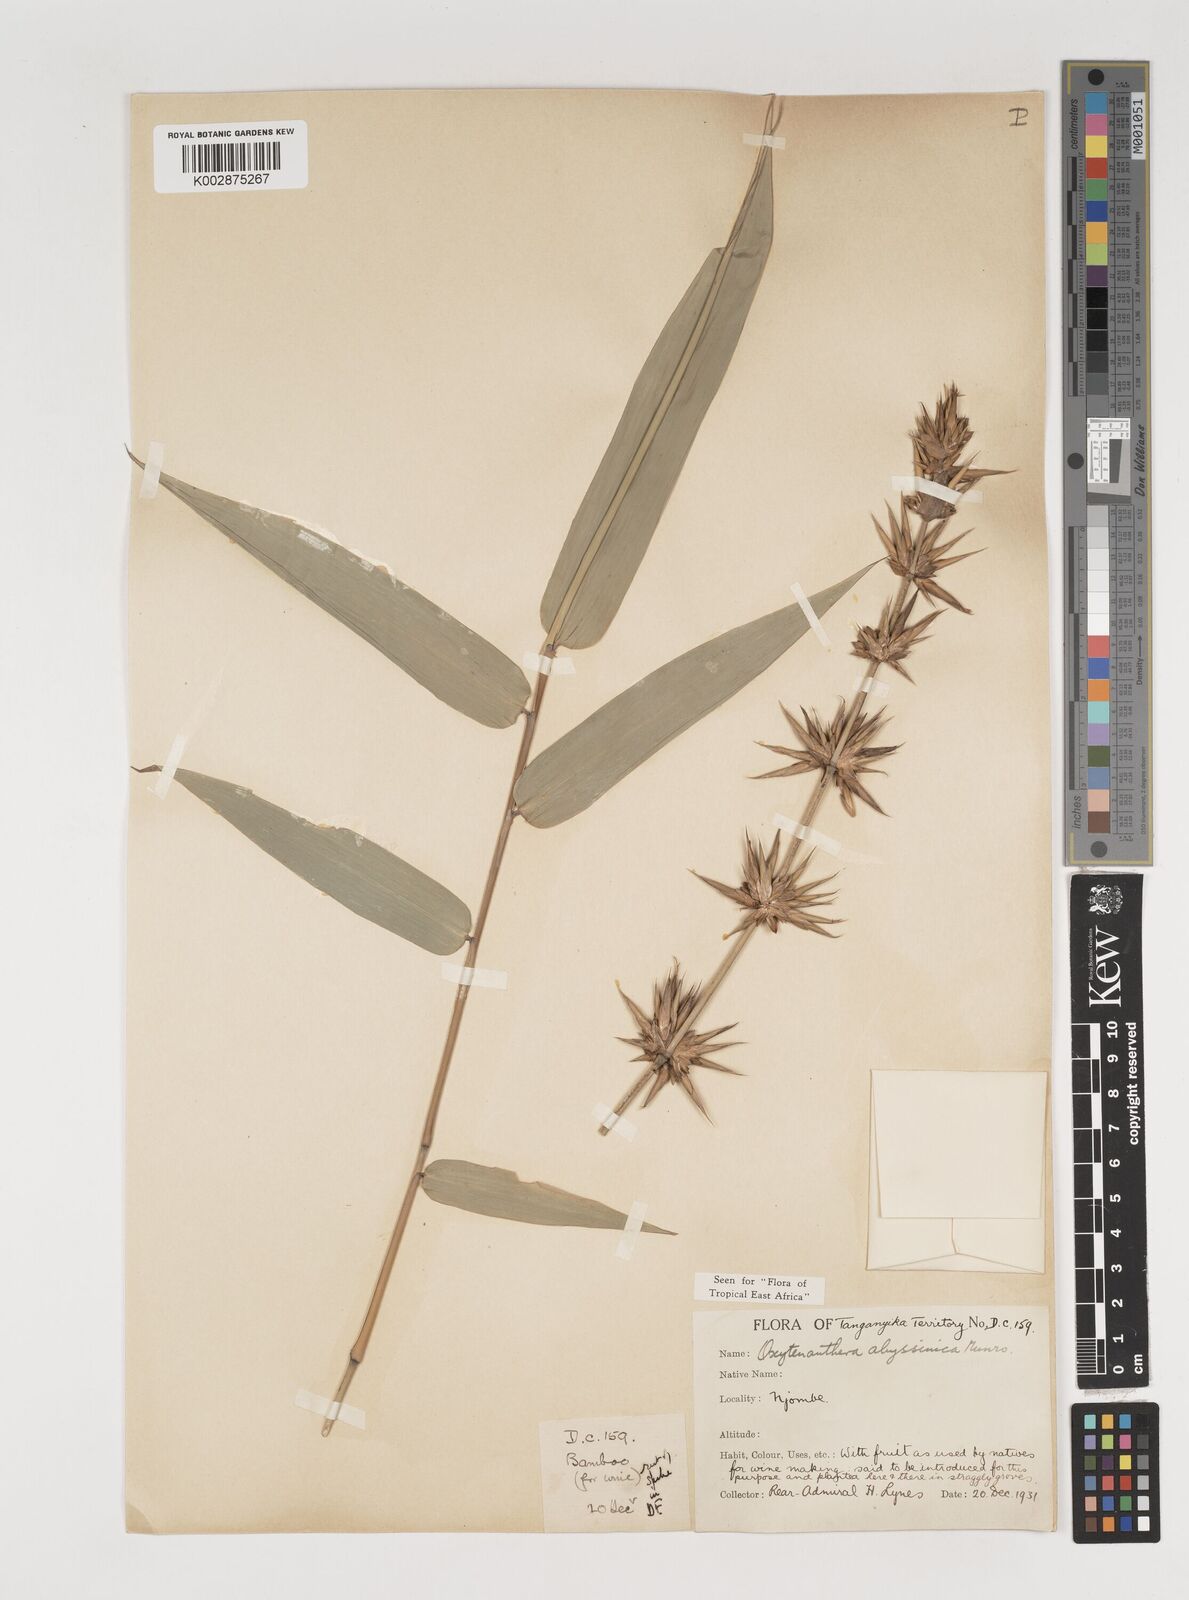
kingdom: Plantae
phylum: Tracheophyta
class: Liliopsida
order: Poales
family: Poaceae
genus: Oxytenanthera
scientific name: Oxytenanthera
